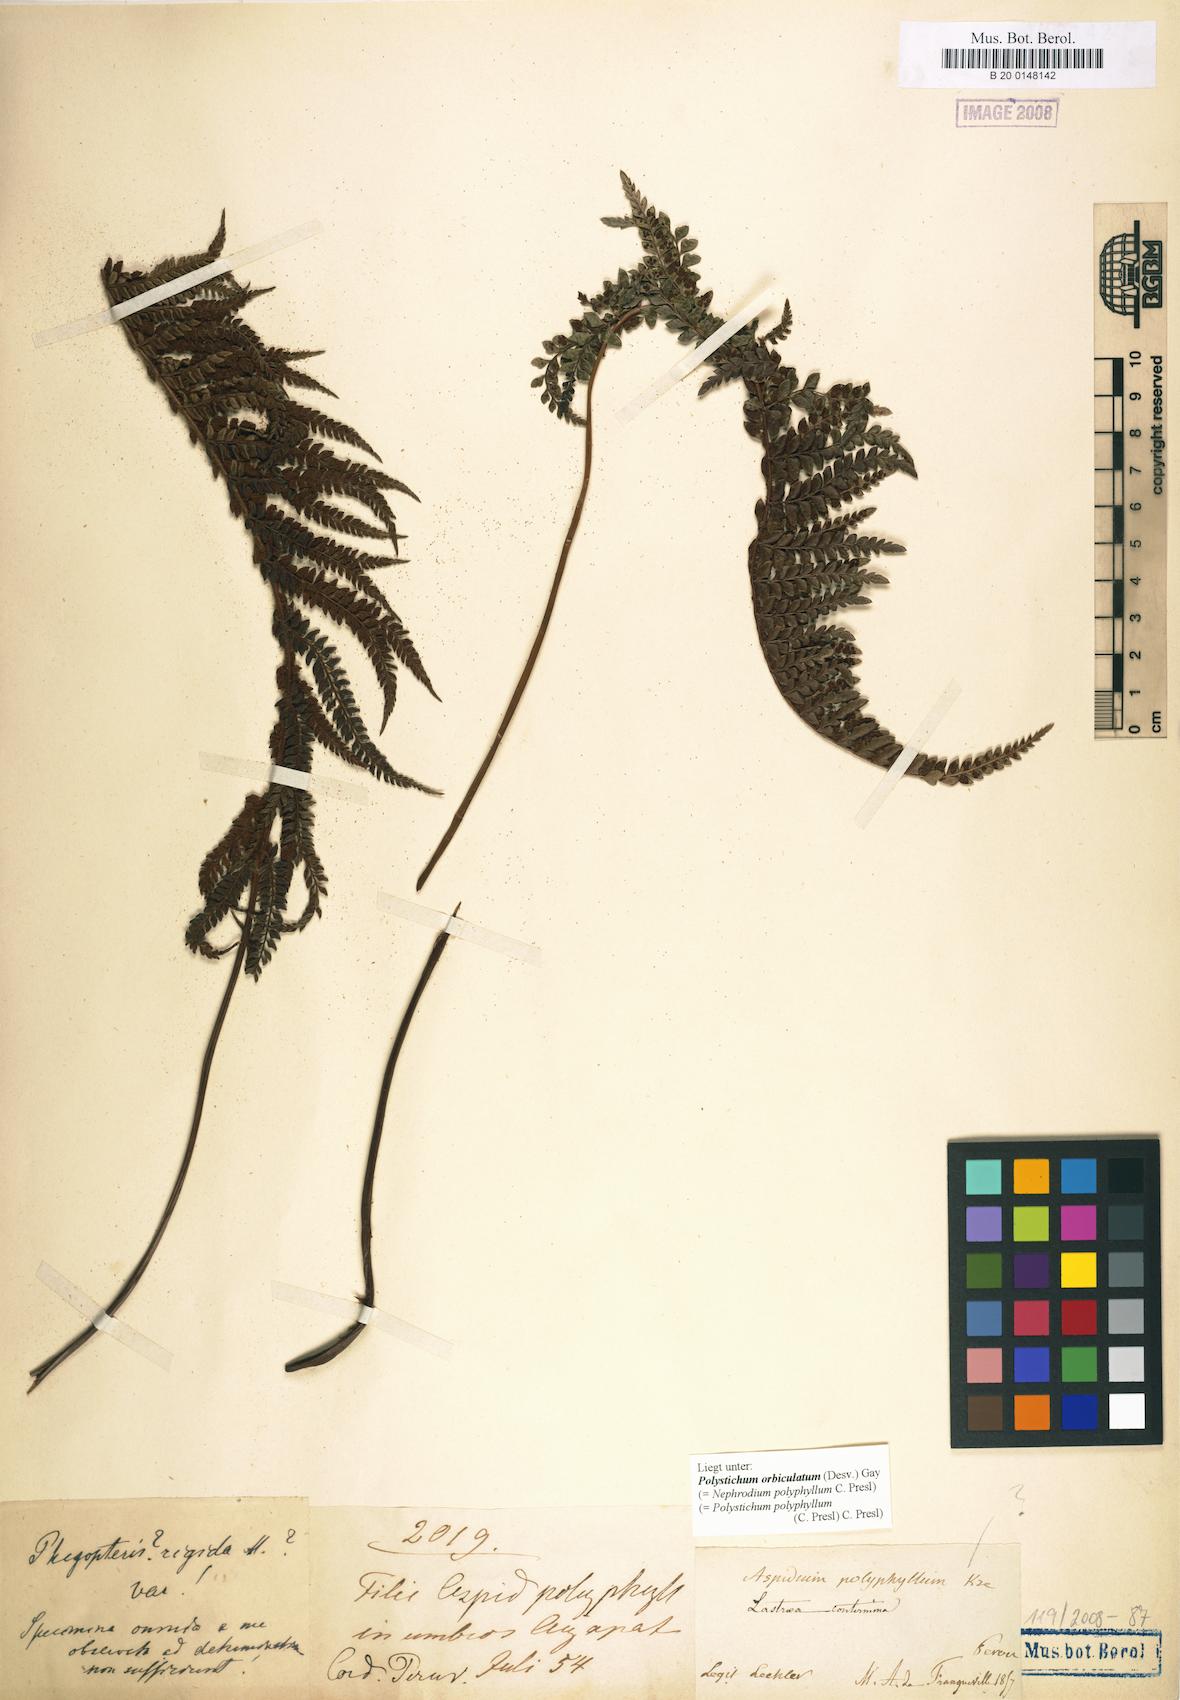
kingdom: Plantae
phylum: Tracheophyta
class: Polypodiopsida
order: Polypodiales
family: Dryopteridaceae
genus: Polystichum
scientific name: Polystichum orbiculatum
